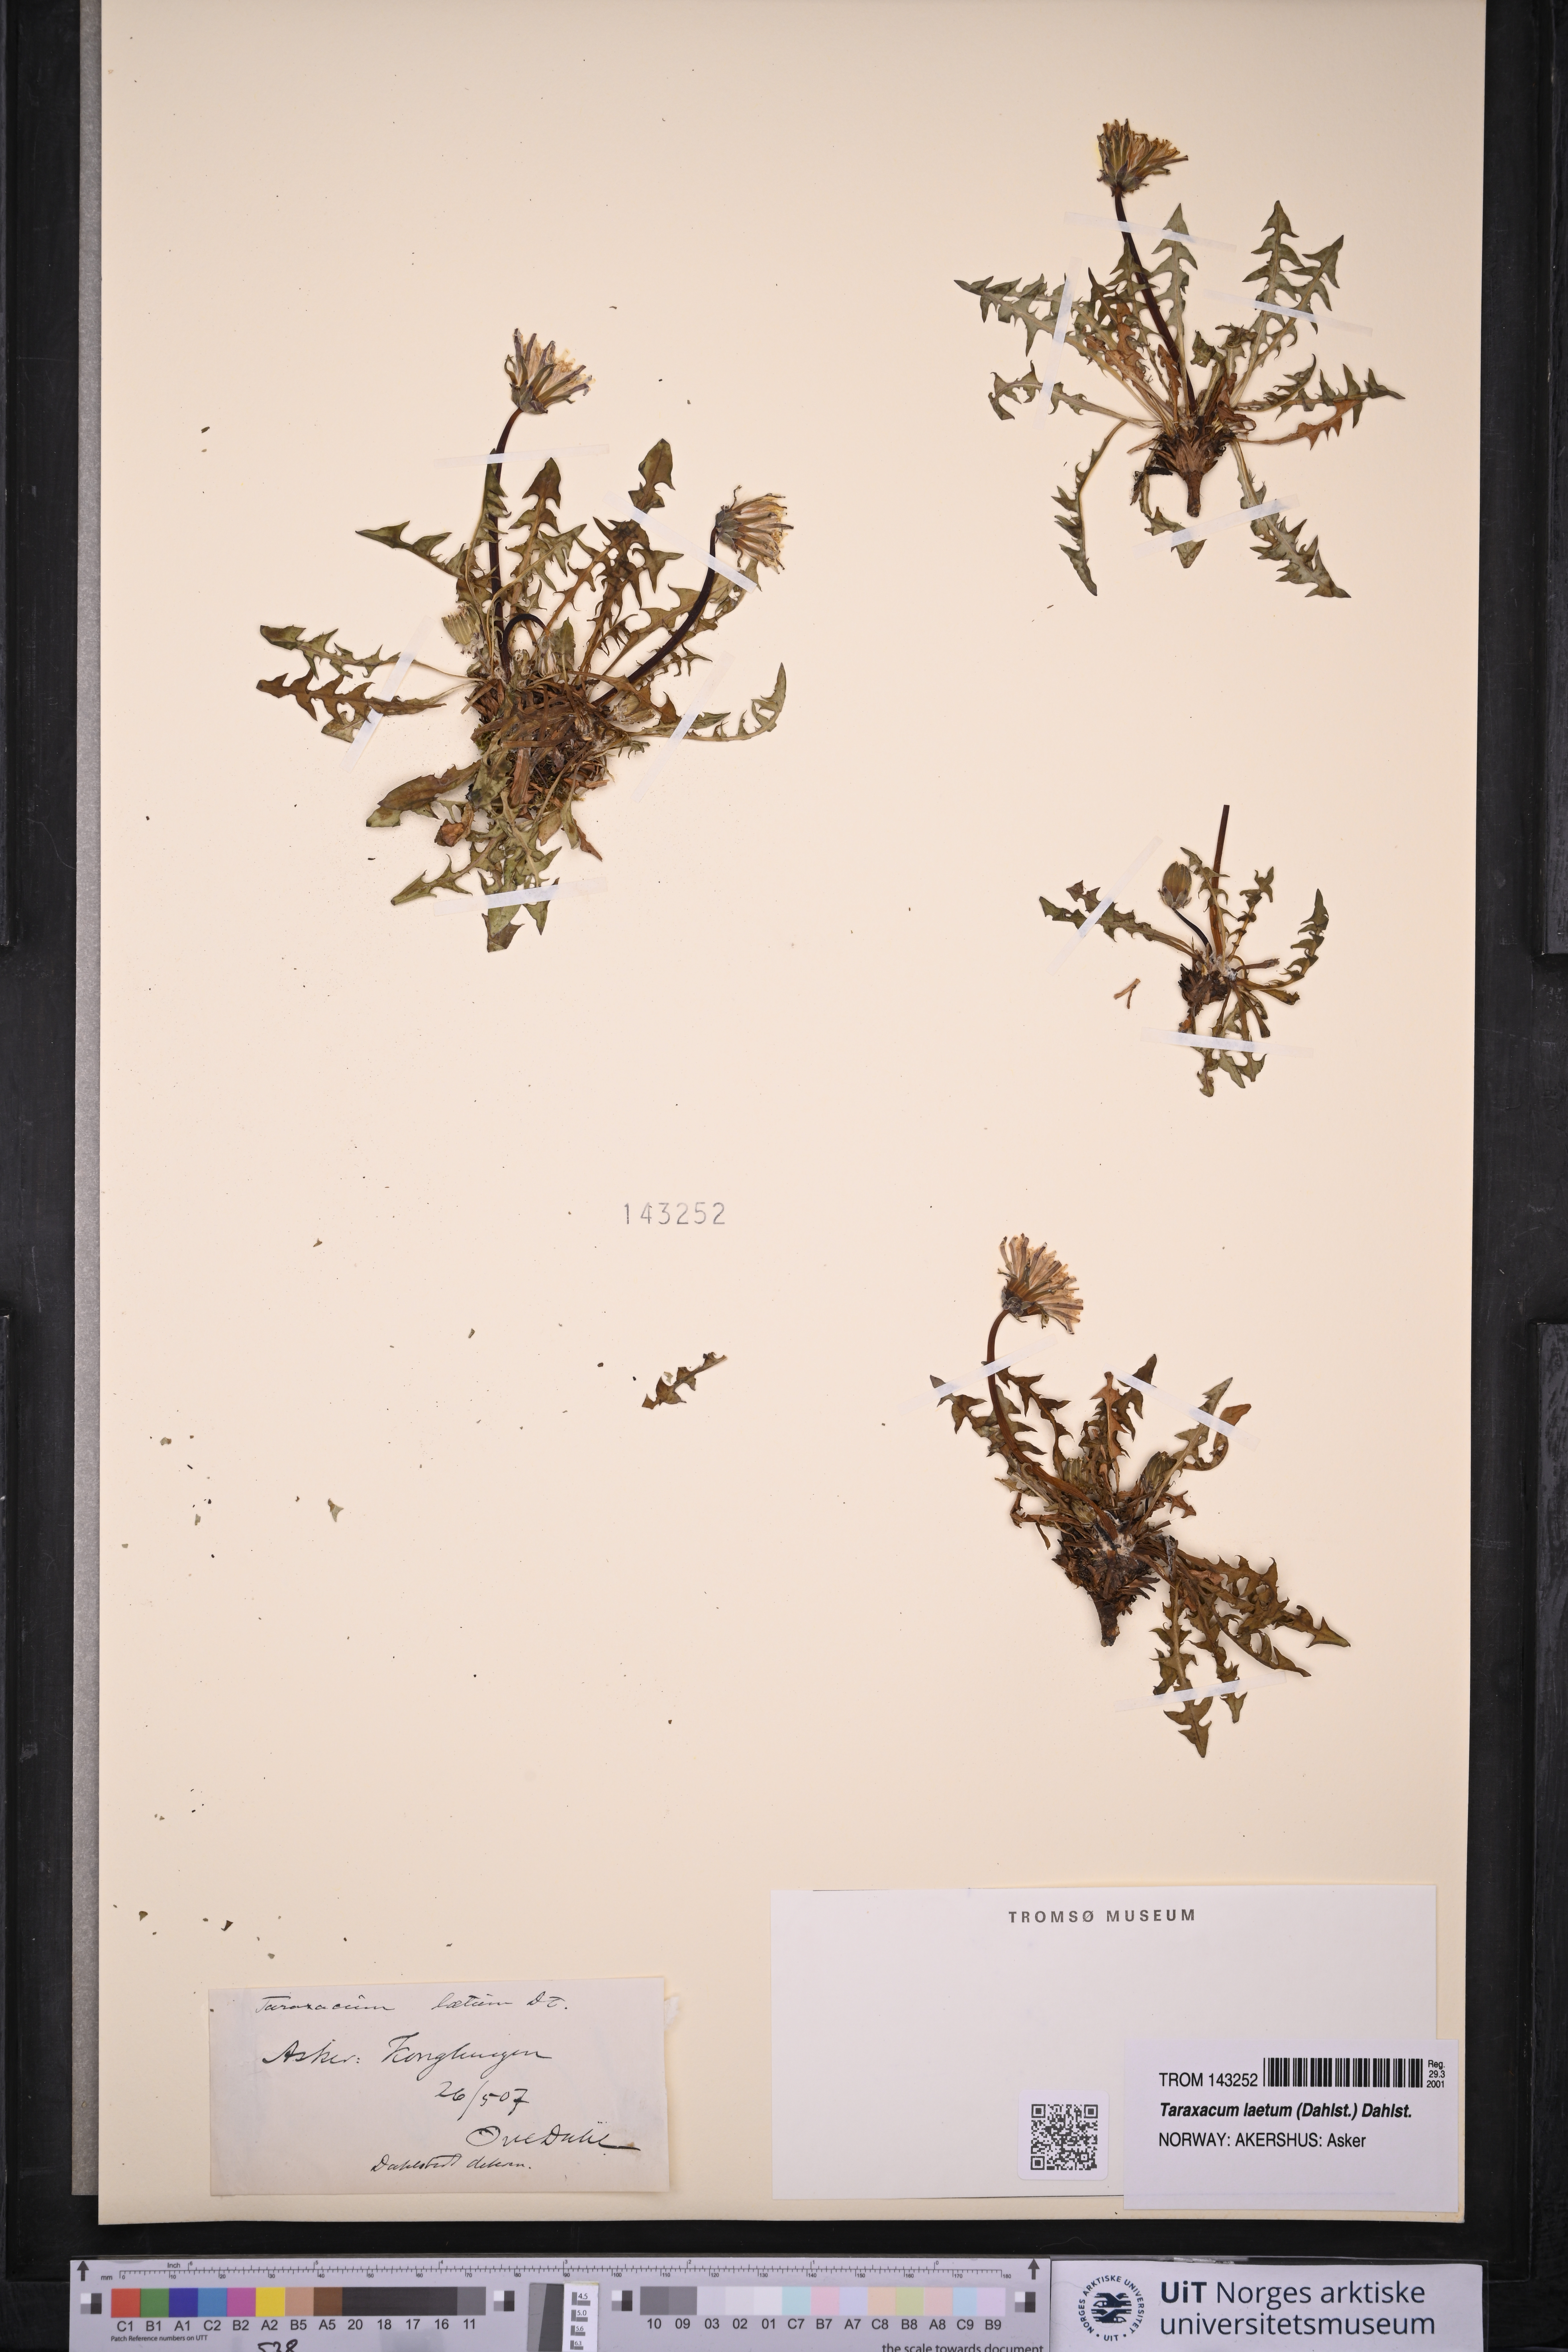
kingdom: Plantae
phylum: Tracheophyta
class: Magnoliopsida
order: Asterales
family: Asteraceae
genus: Taraxacum
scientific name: Taraxacum laetum
